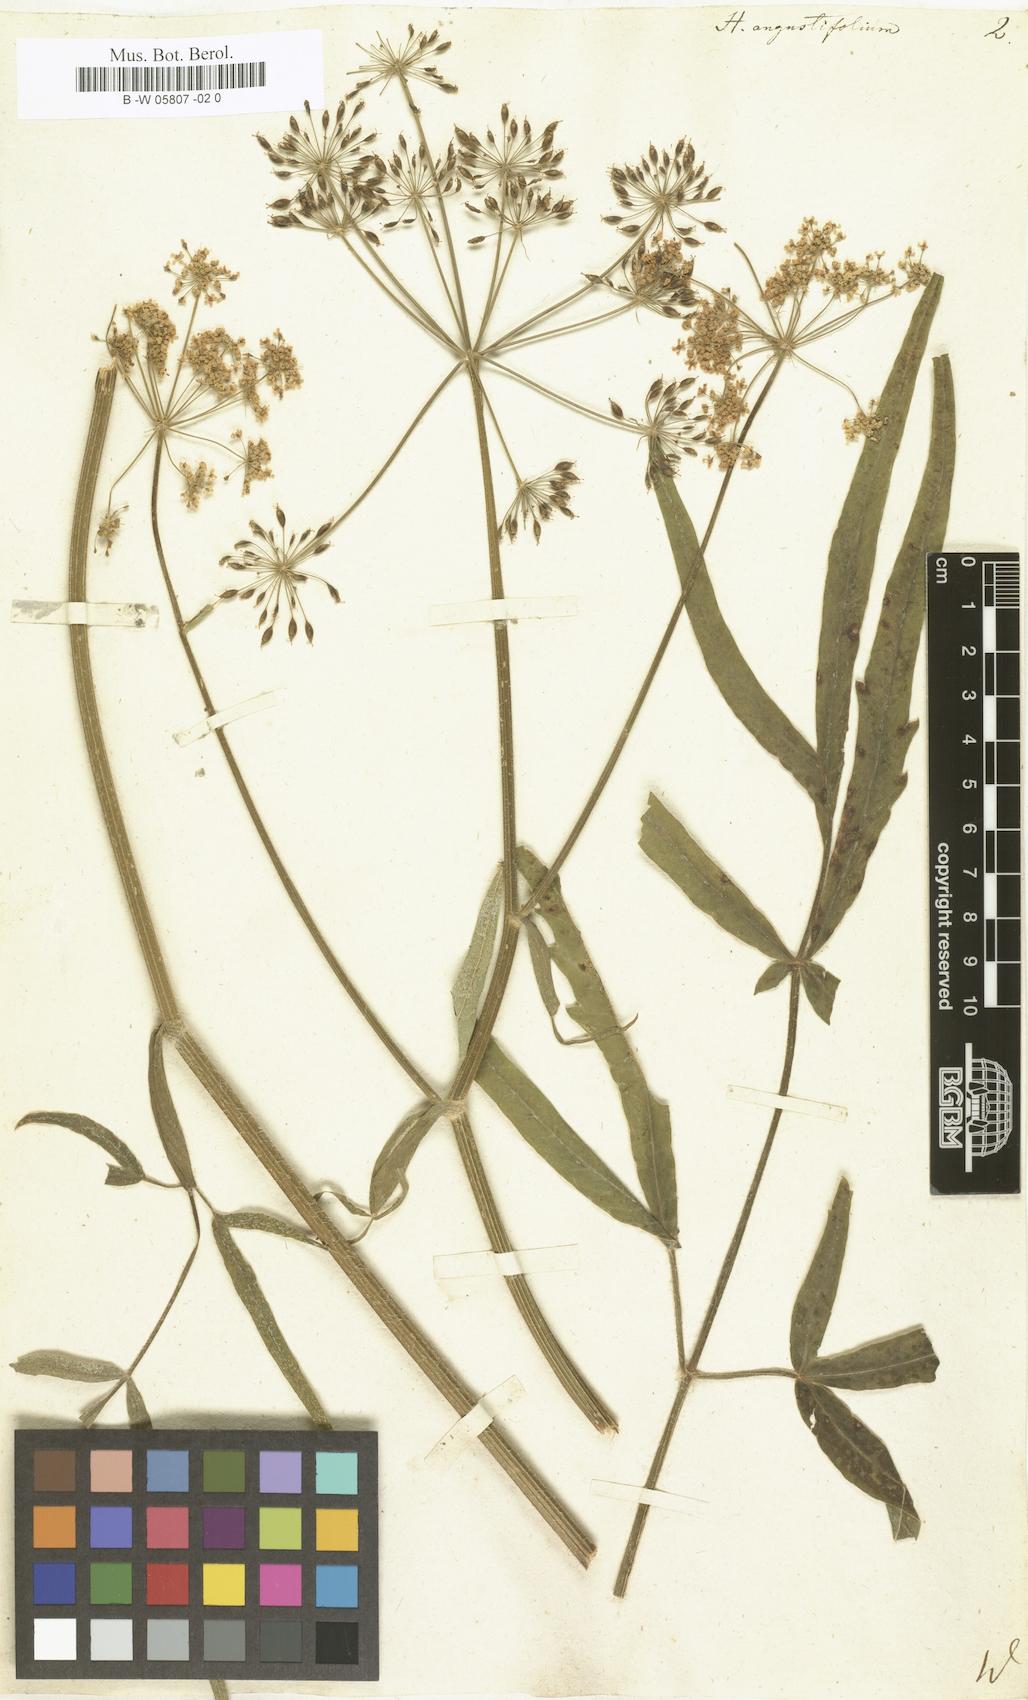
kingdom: Plantae
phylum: Tracheophyta
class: Magnoliopsida
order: Apiales
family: Apiaceae
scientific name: Apiaceae
